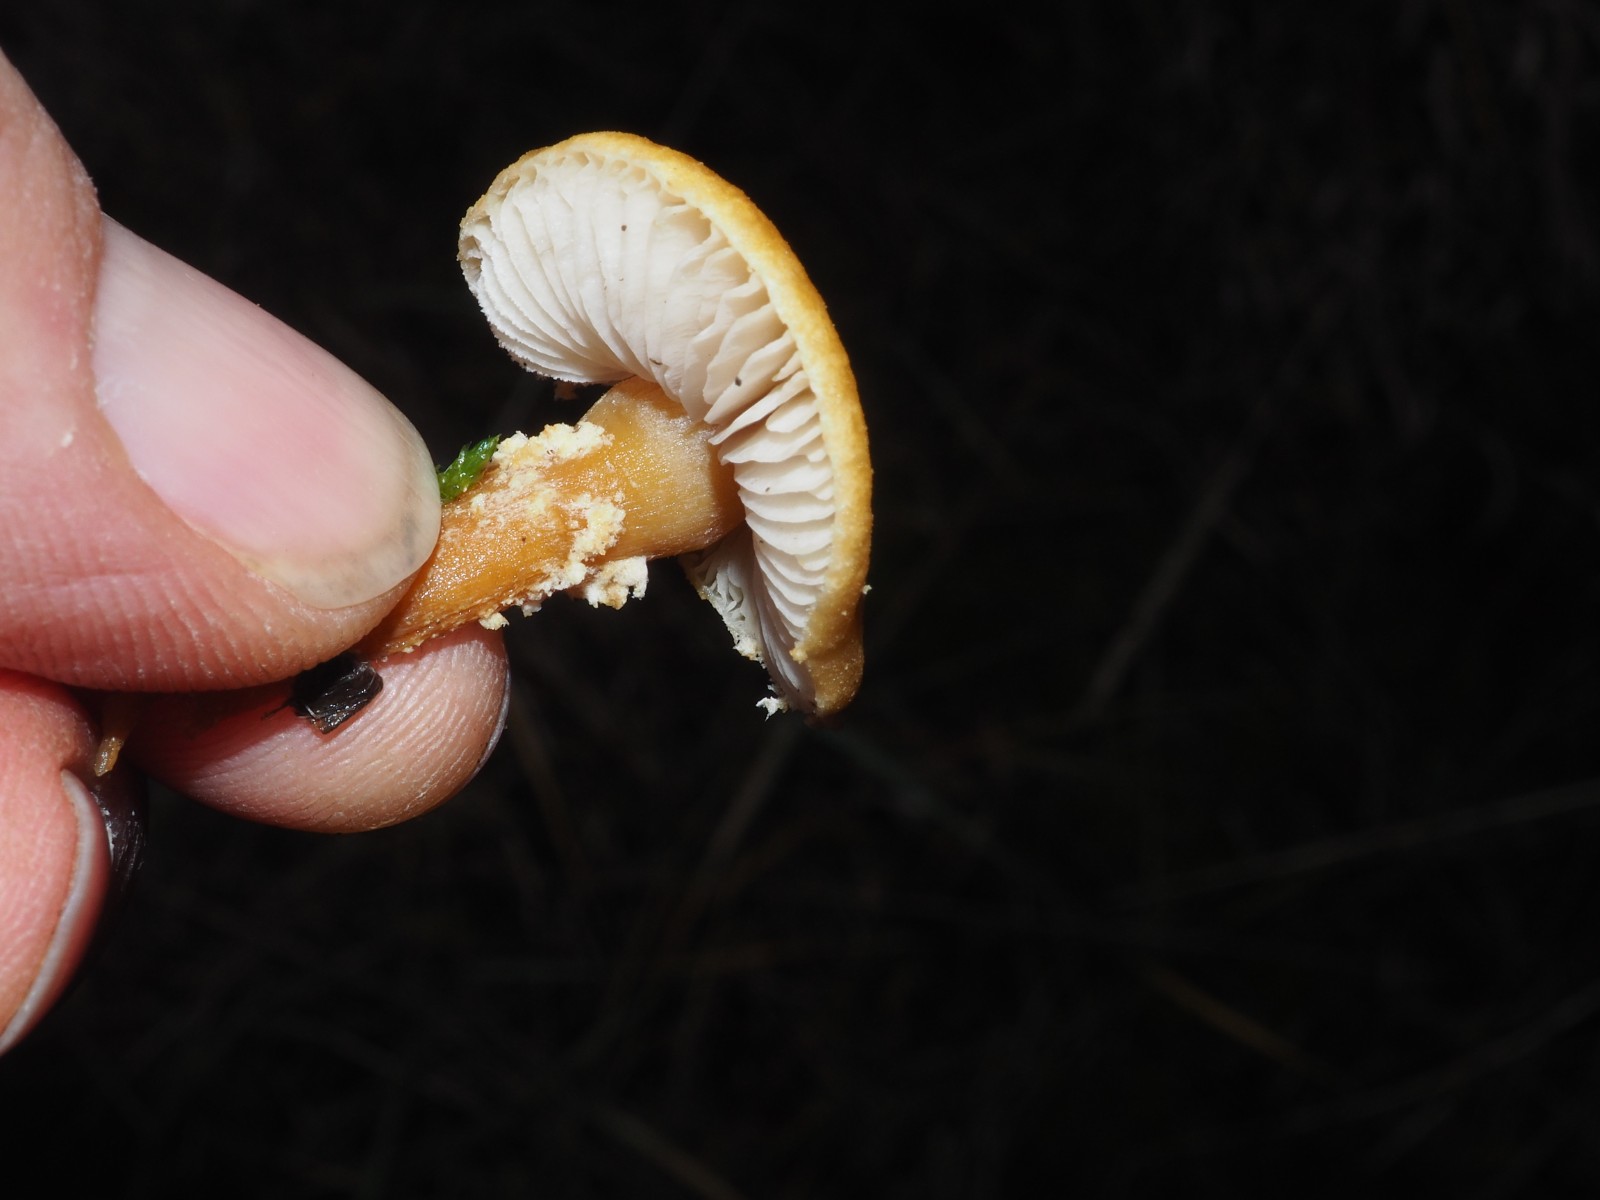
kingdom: Fungi
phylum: Basidiomycota
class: Agaricomycetes
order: Agaricales
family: Tricholomataceae
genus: Cystoderma
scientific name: Cystoderma amianthinum
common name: okkergul grynhat
